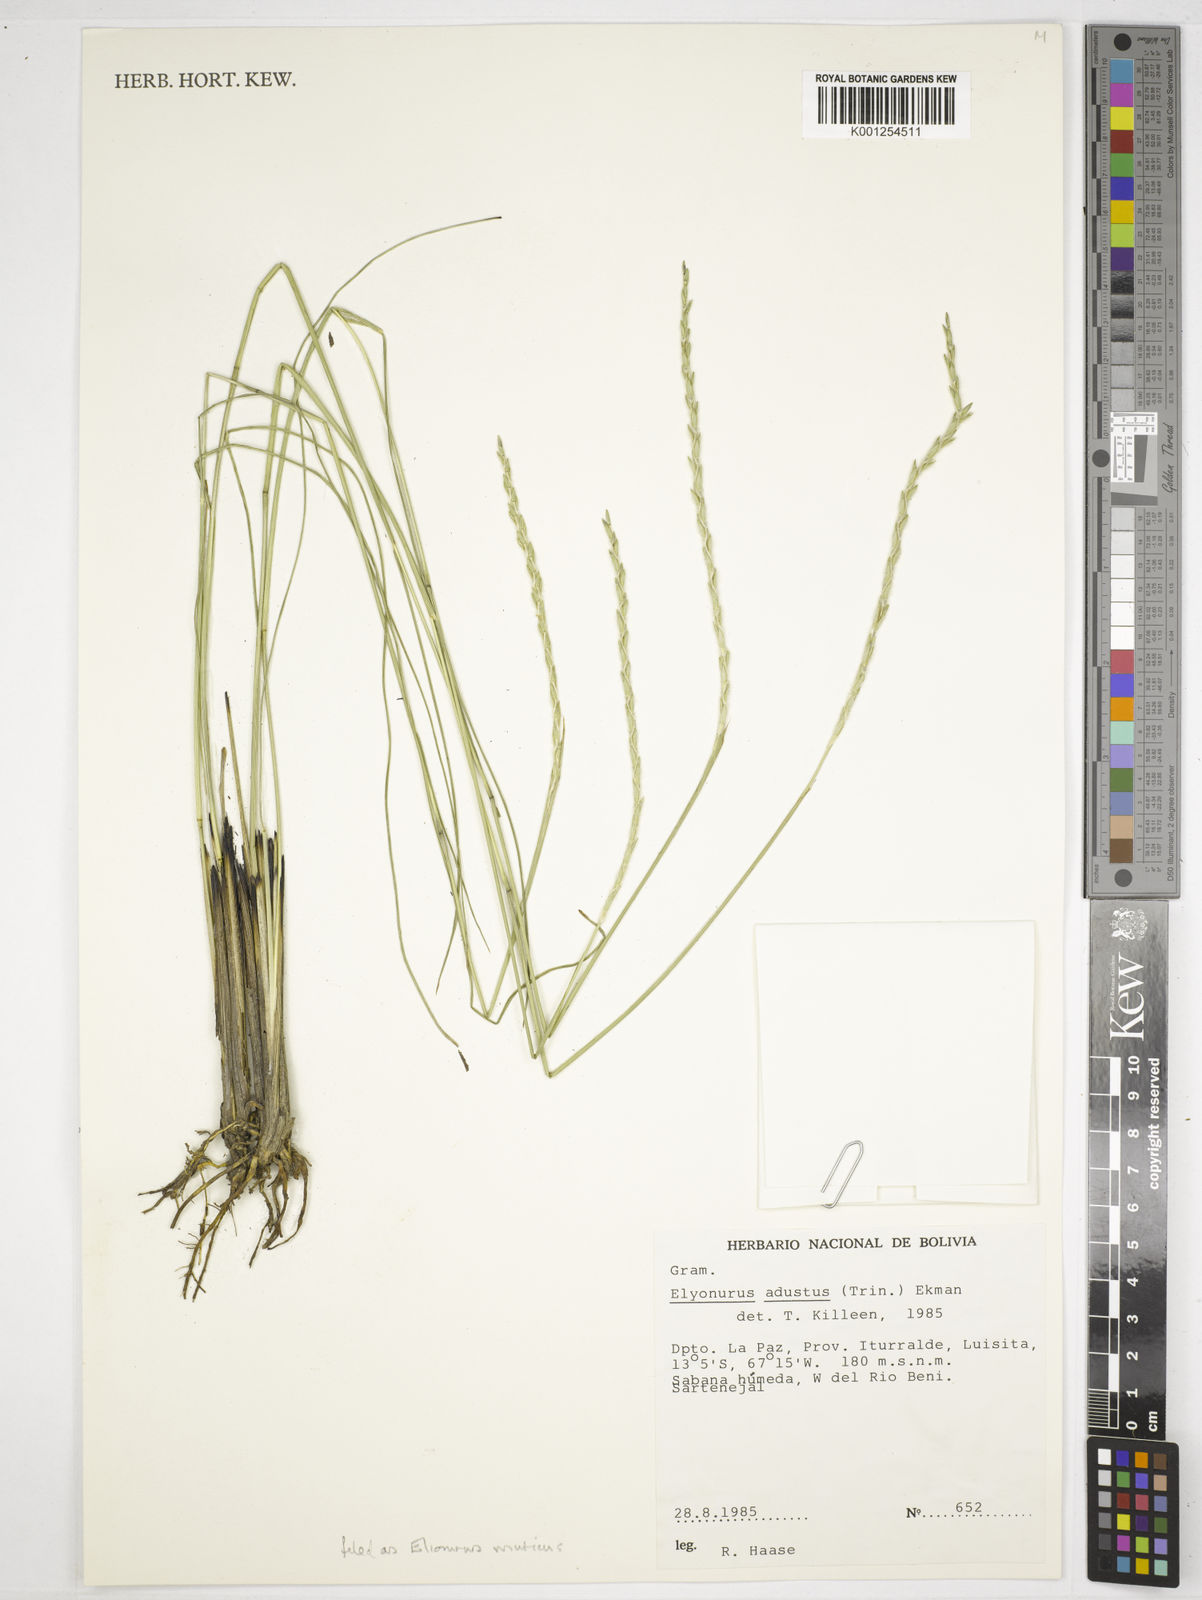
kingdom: Plantae
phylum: Tracheophyta
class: Liliopsida
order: Poales
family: Poaceae
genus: Elionurus
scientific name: Elionurus muticus
